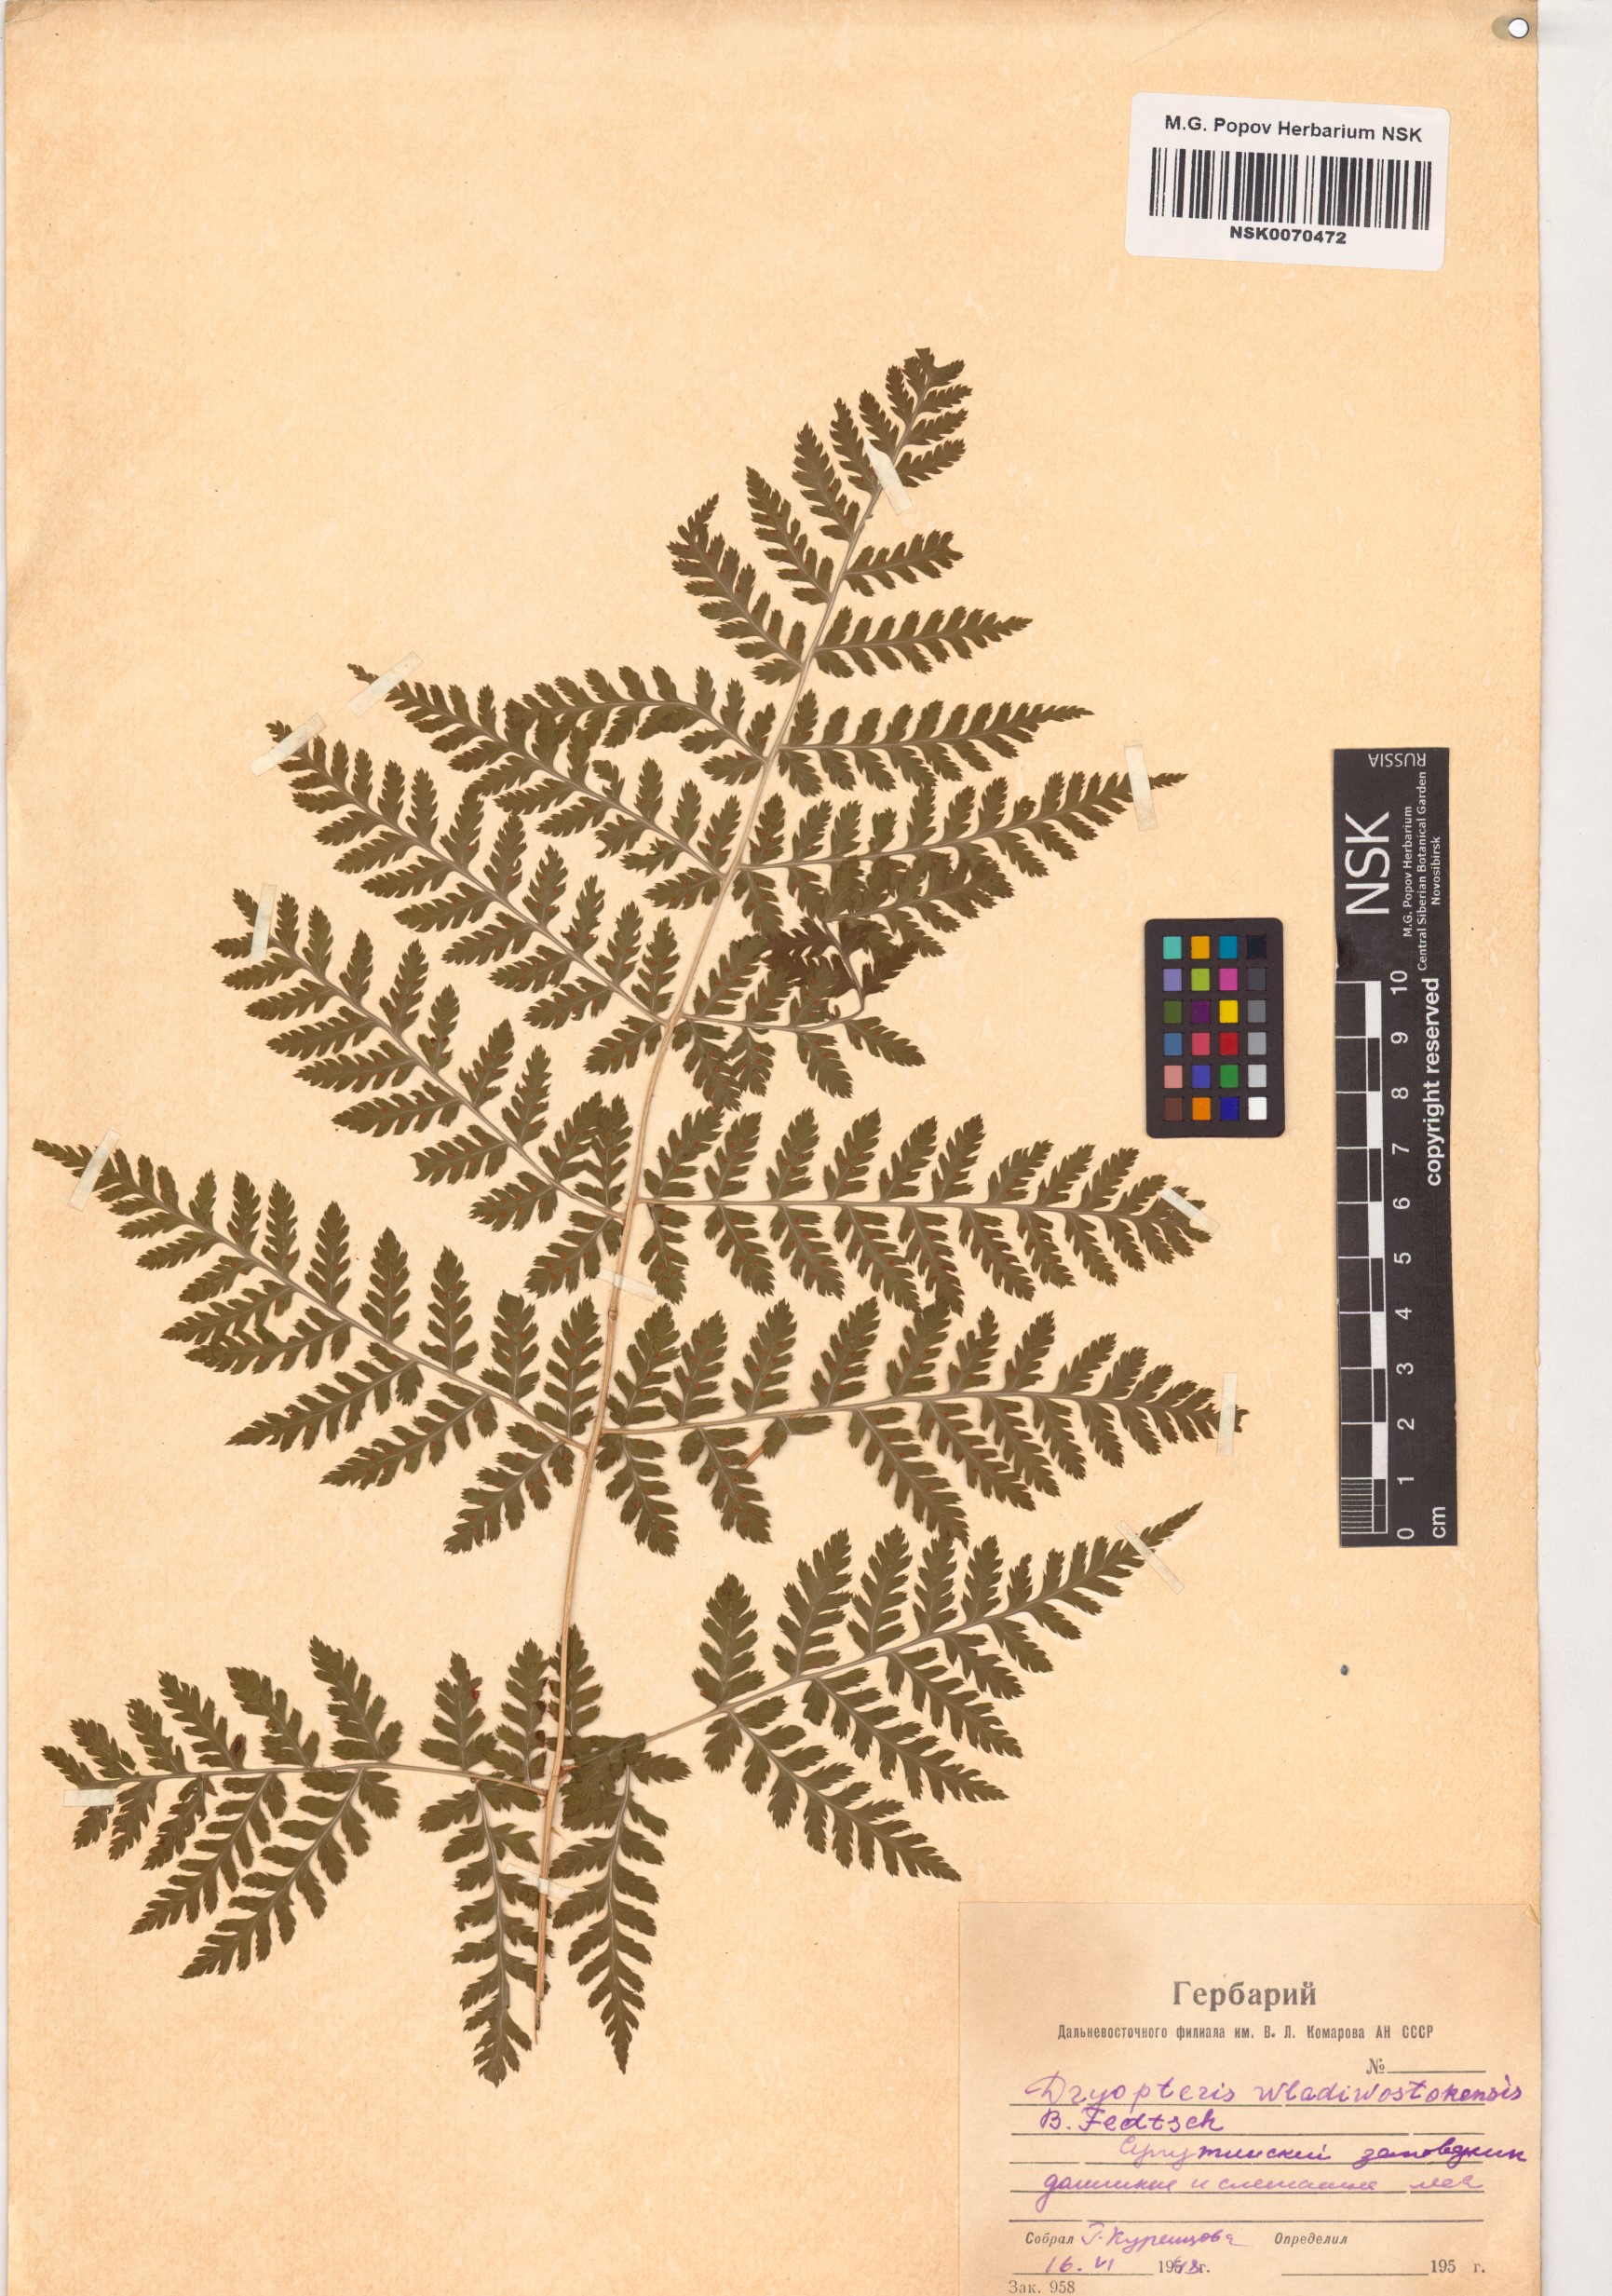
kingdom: Plantae
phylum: Tracheophyta
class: Polypodiopsida
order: Polypodiales
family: Dryopteridaceae
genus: Dryopteris
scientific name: Dryopteris laeta
